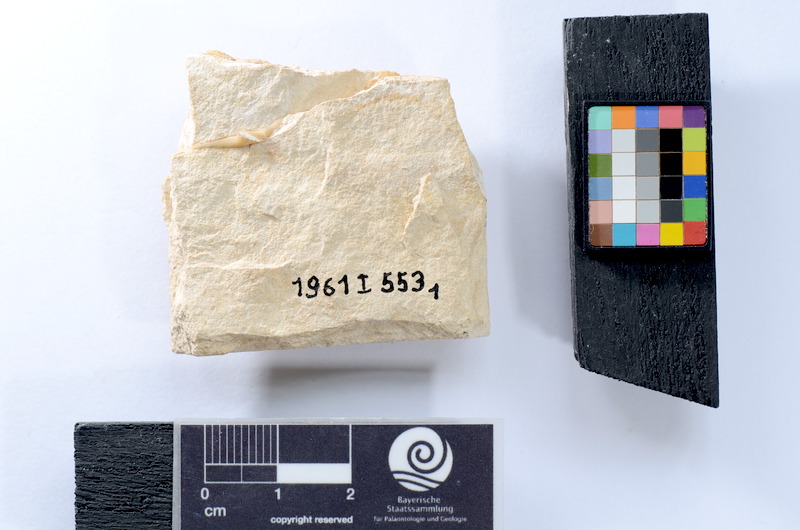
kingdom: Animalia
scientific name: Animalia
